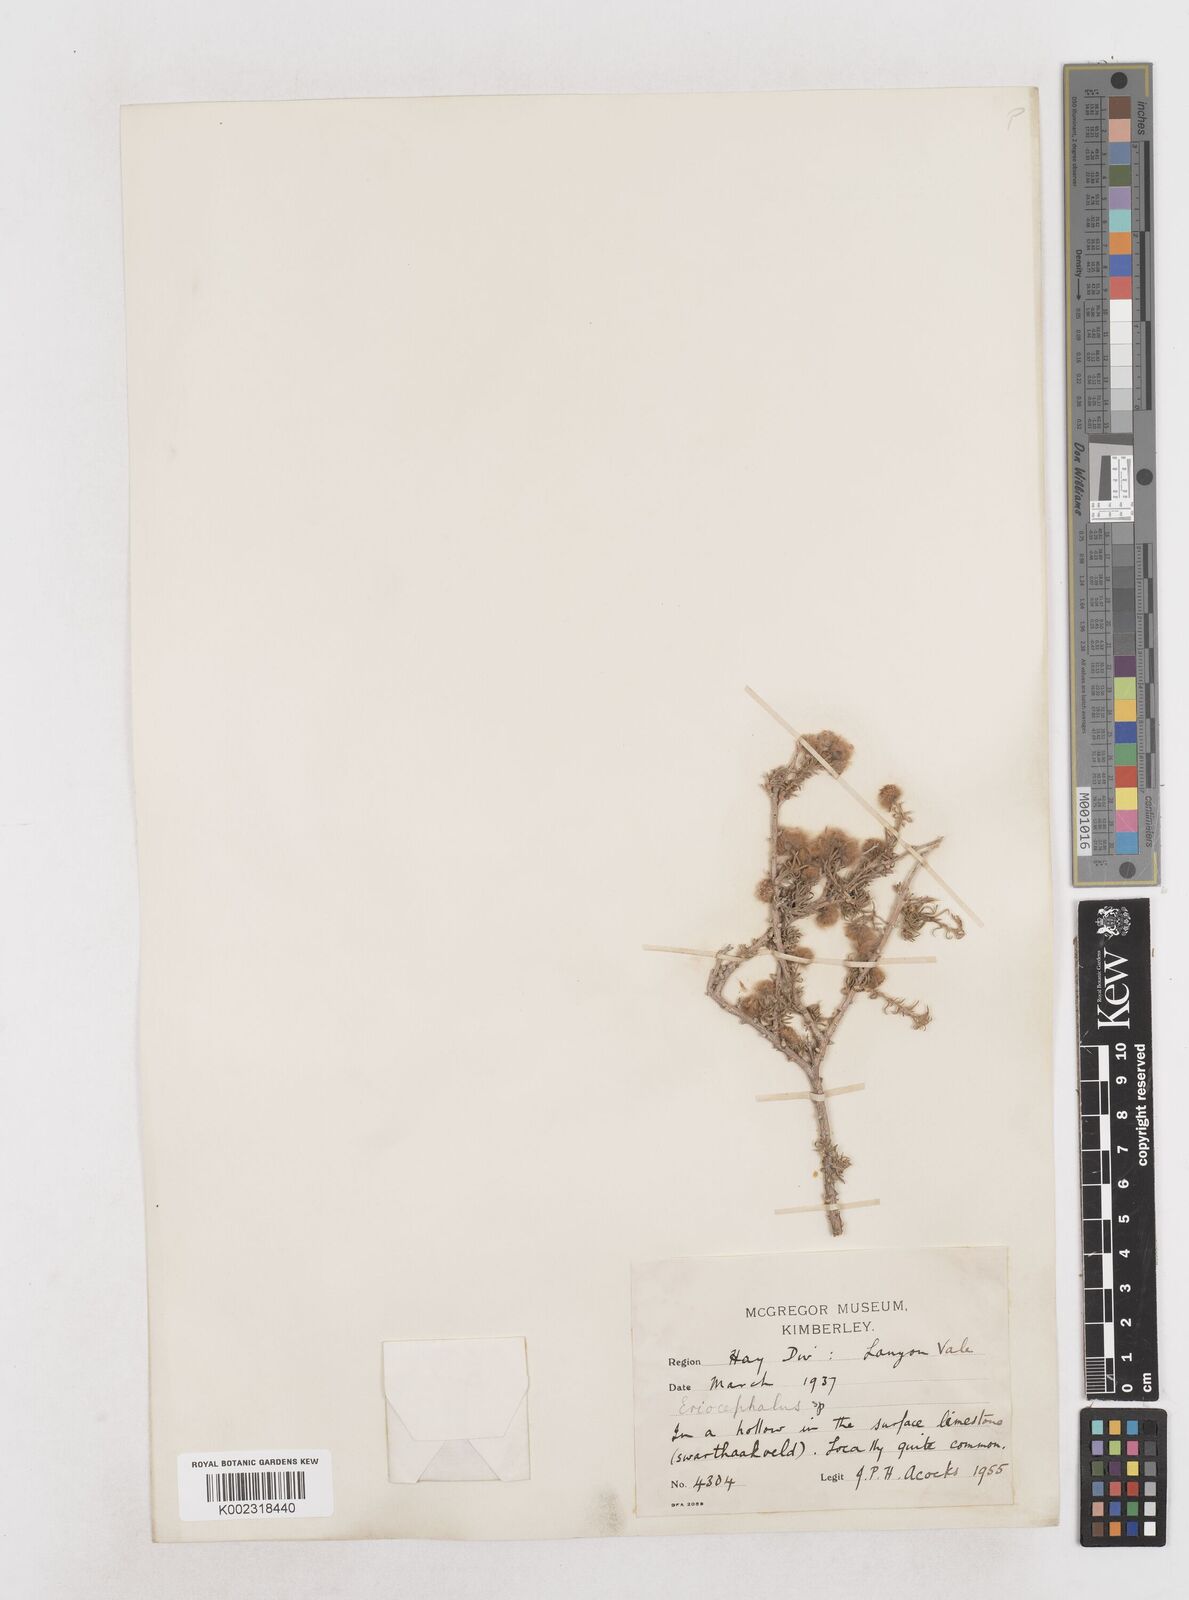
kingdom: Plantae
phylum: Tracheophyta
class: Magnoliopsida
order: Asterales
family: Asteraceae
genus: Eriocephalus
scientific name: Eriocephalus
